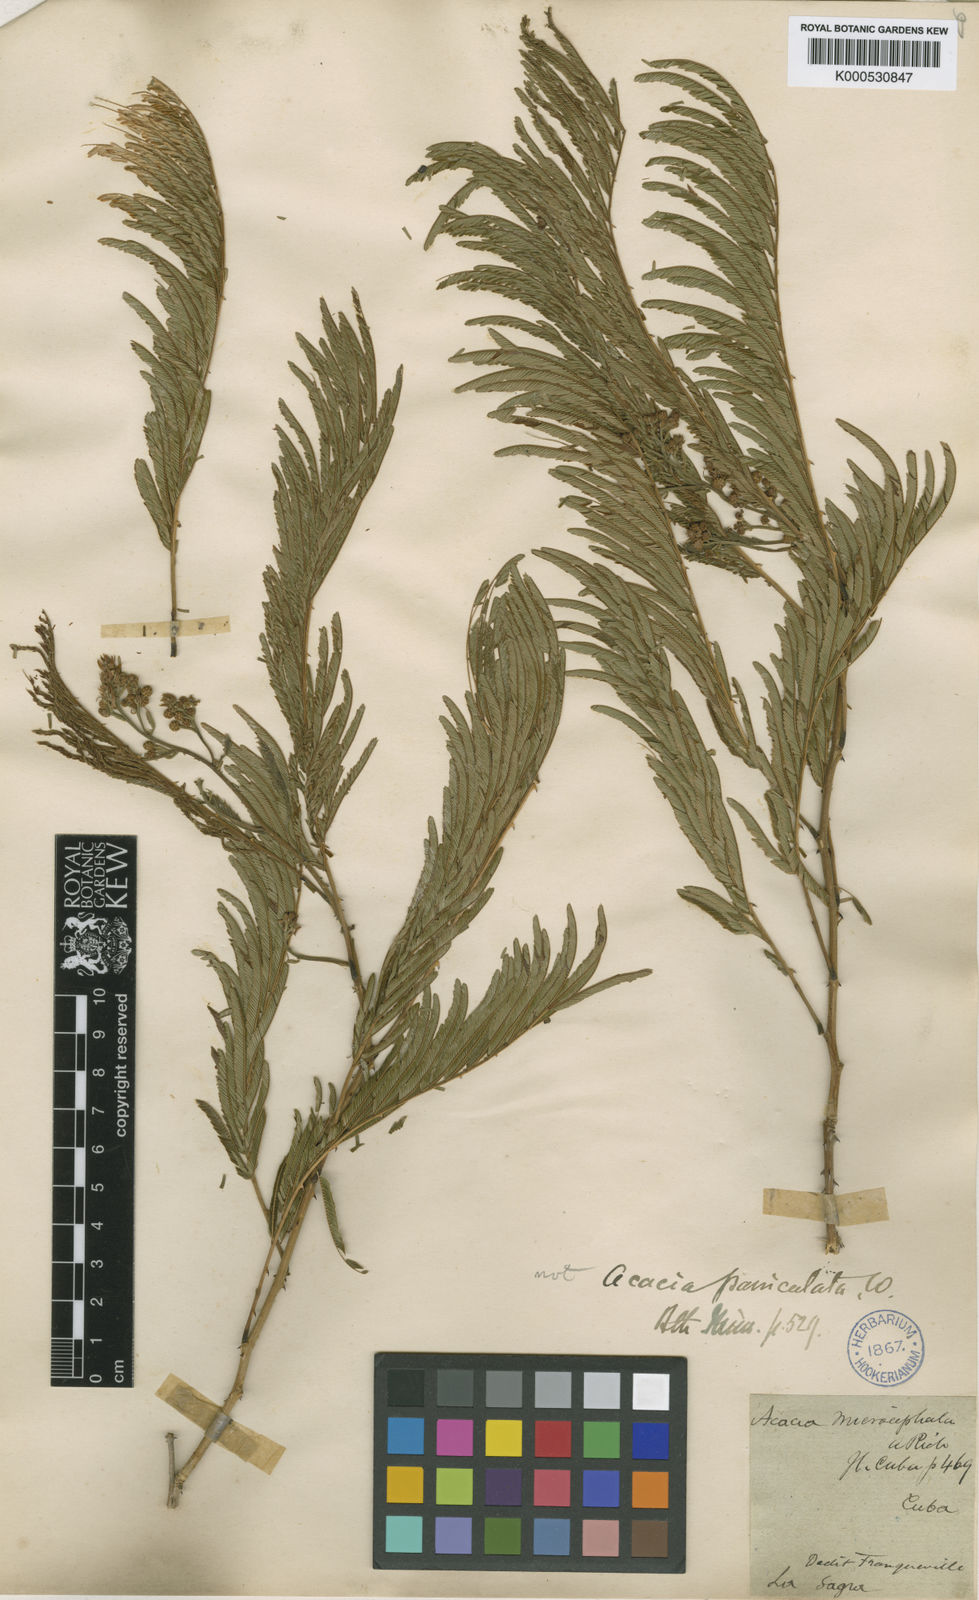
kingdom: Plantae
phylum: Tracheophyta
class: Magnoliopsida
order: Fabales
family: Fabaceae
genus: Senegalia
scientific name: Senegalia paniculata
